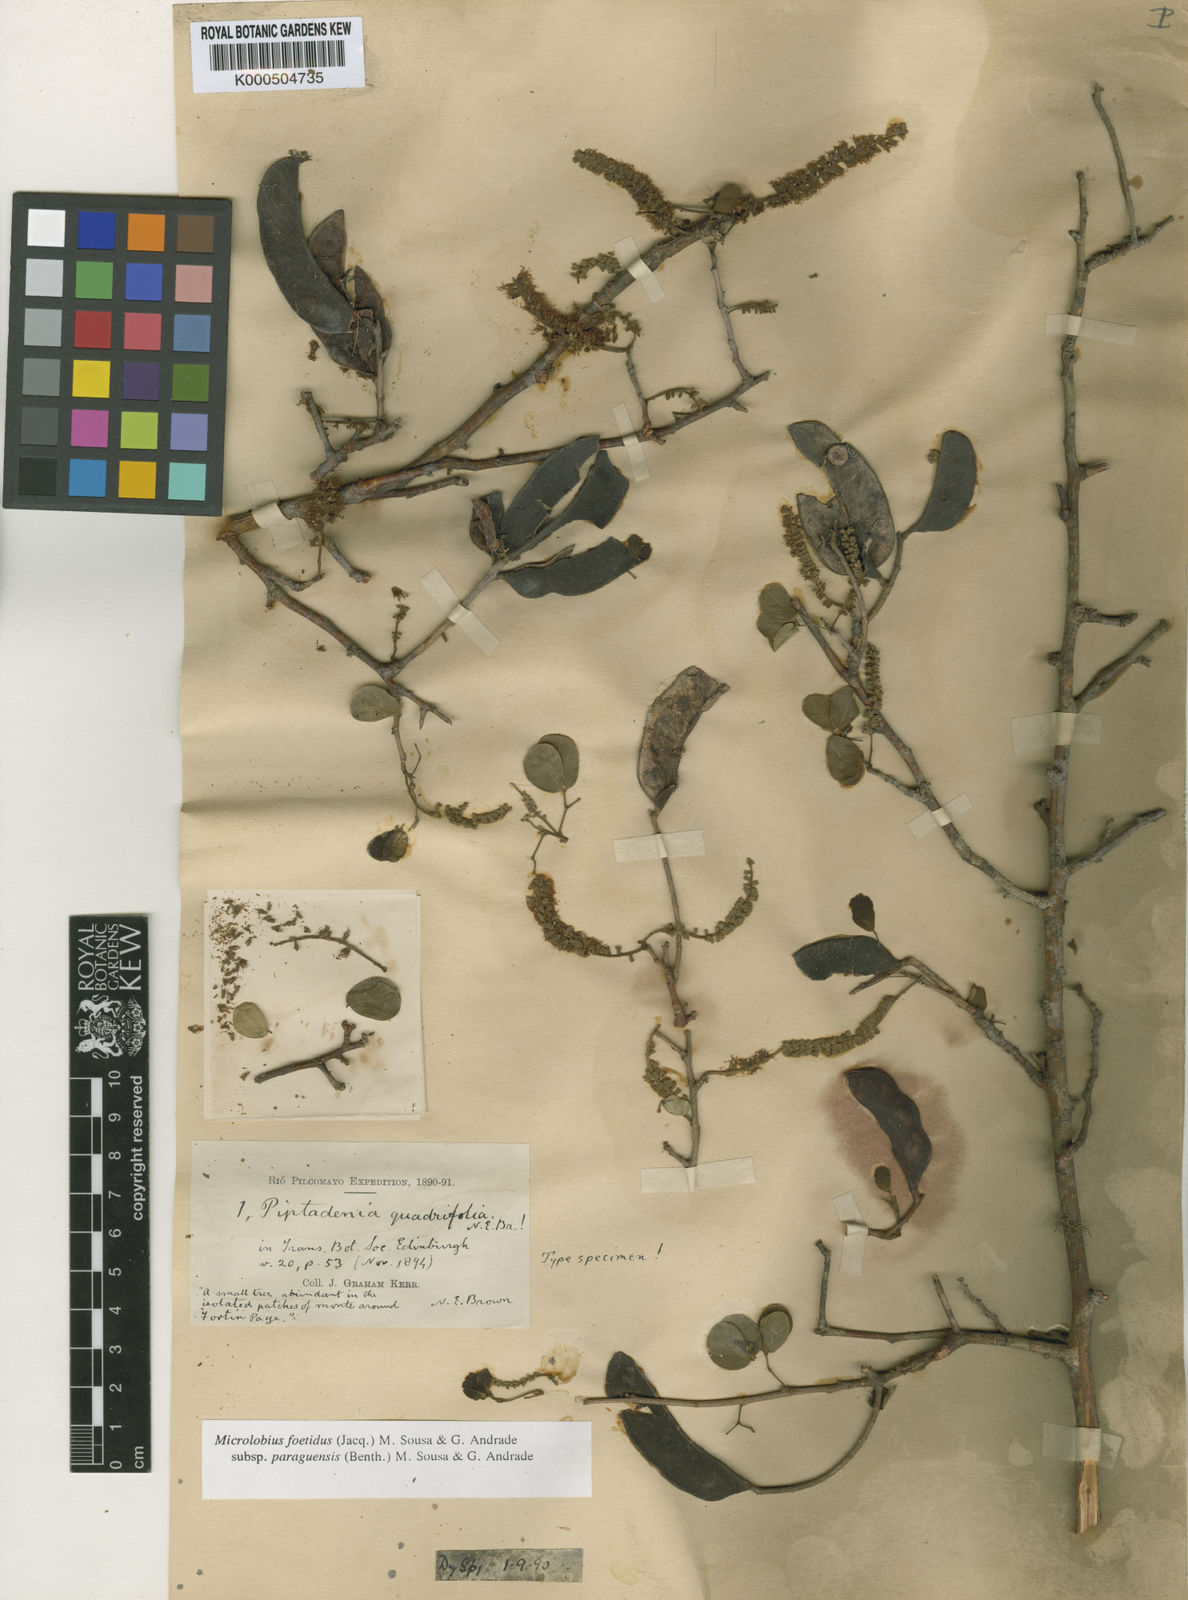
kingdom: Plantae
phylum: Tracheophyta
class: Magnoliopsida
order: Fabales
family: Fabaceae
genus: Microlobius
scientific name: Microlobius
